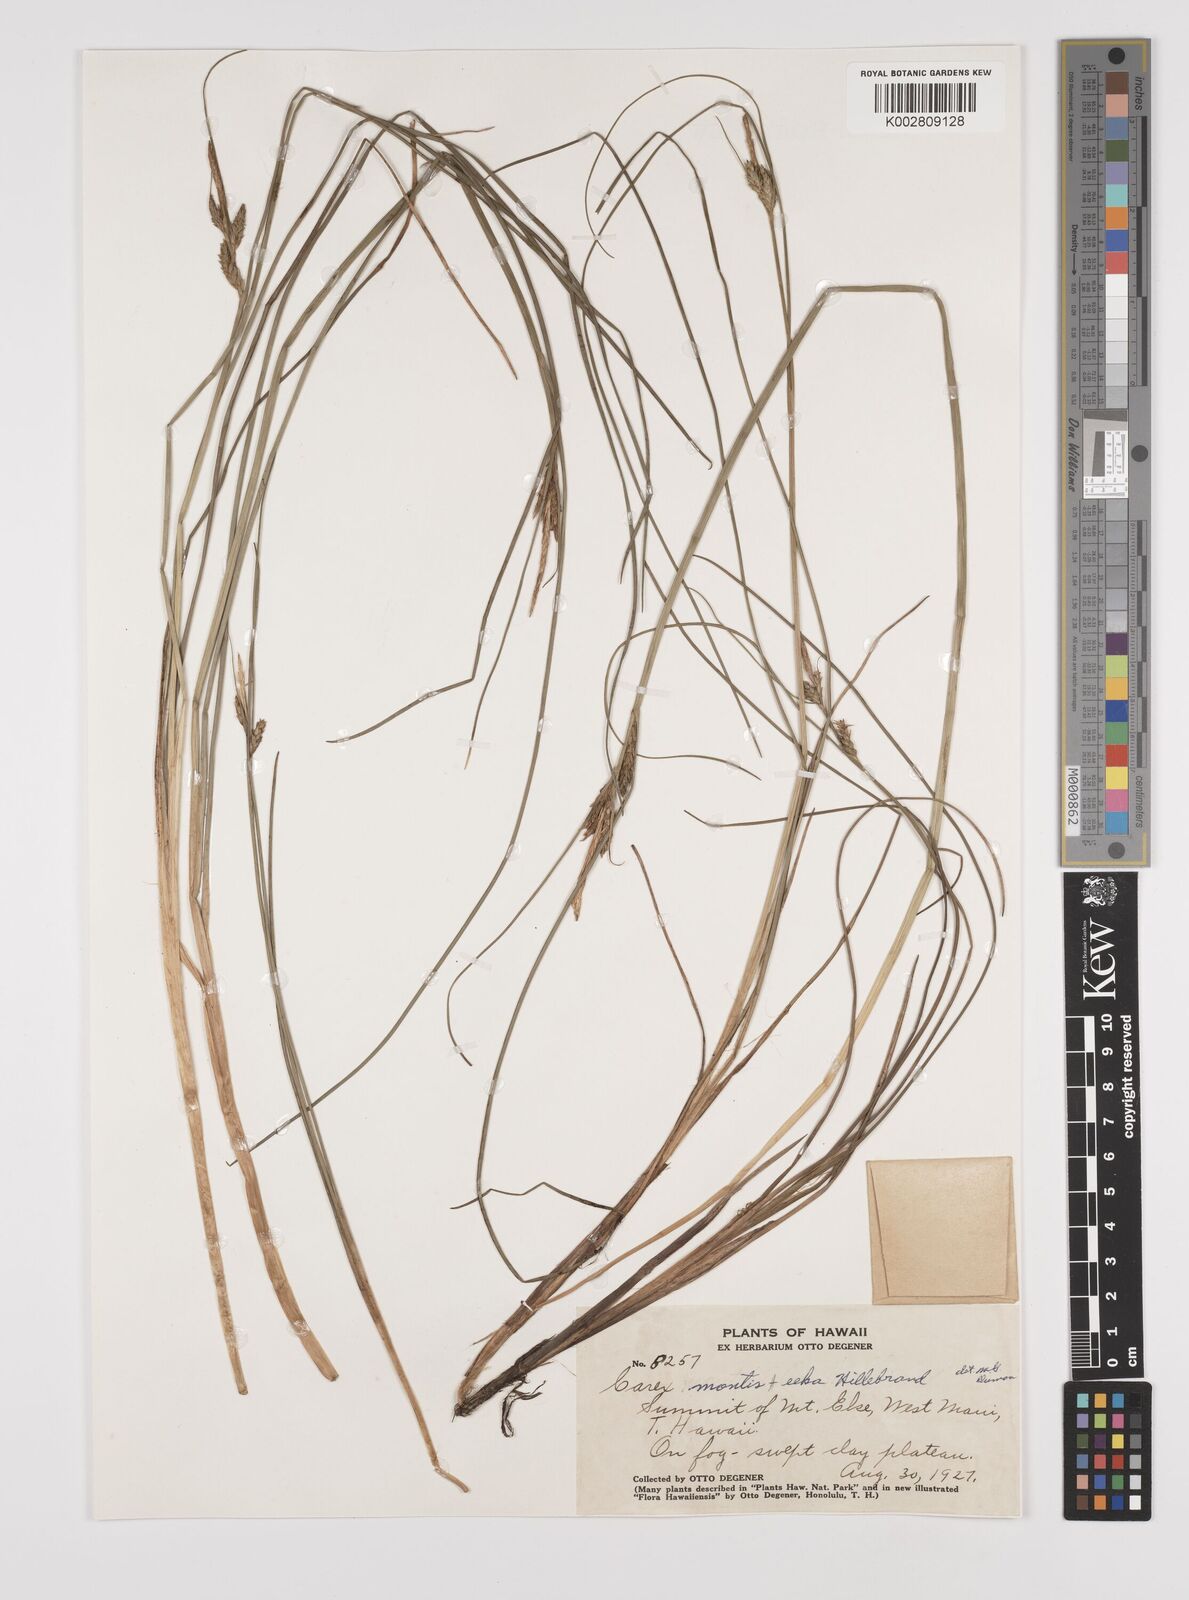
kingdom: Plantae
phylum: Tracheophyta
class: Liliopsida
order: Poales
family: Cyperaceae
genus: Carex
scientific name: Carex montis-eeka
